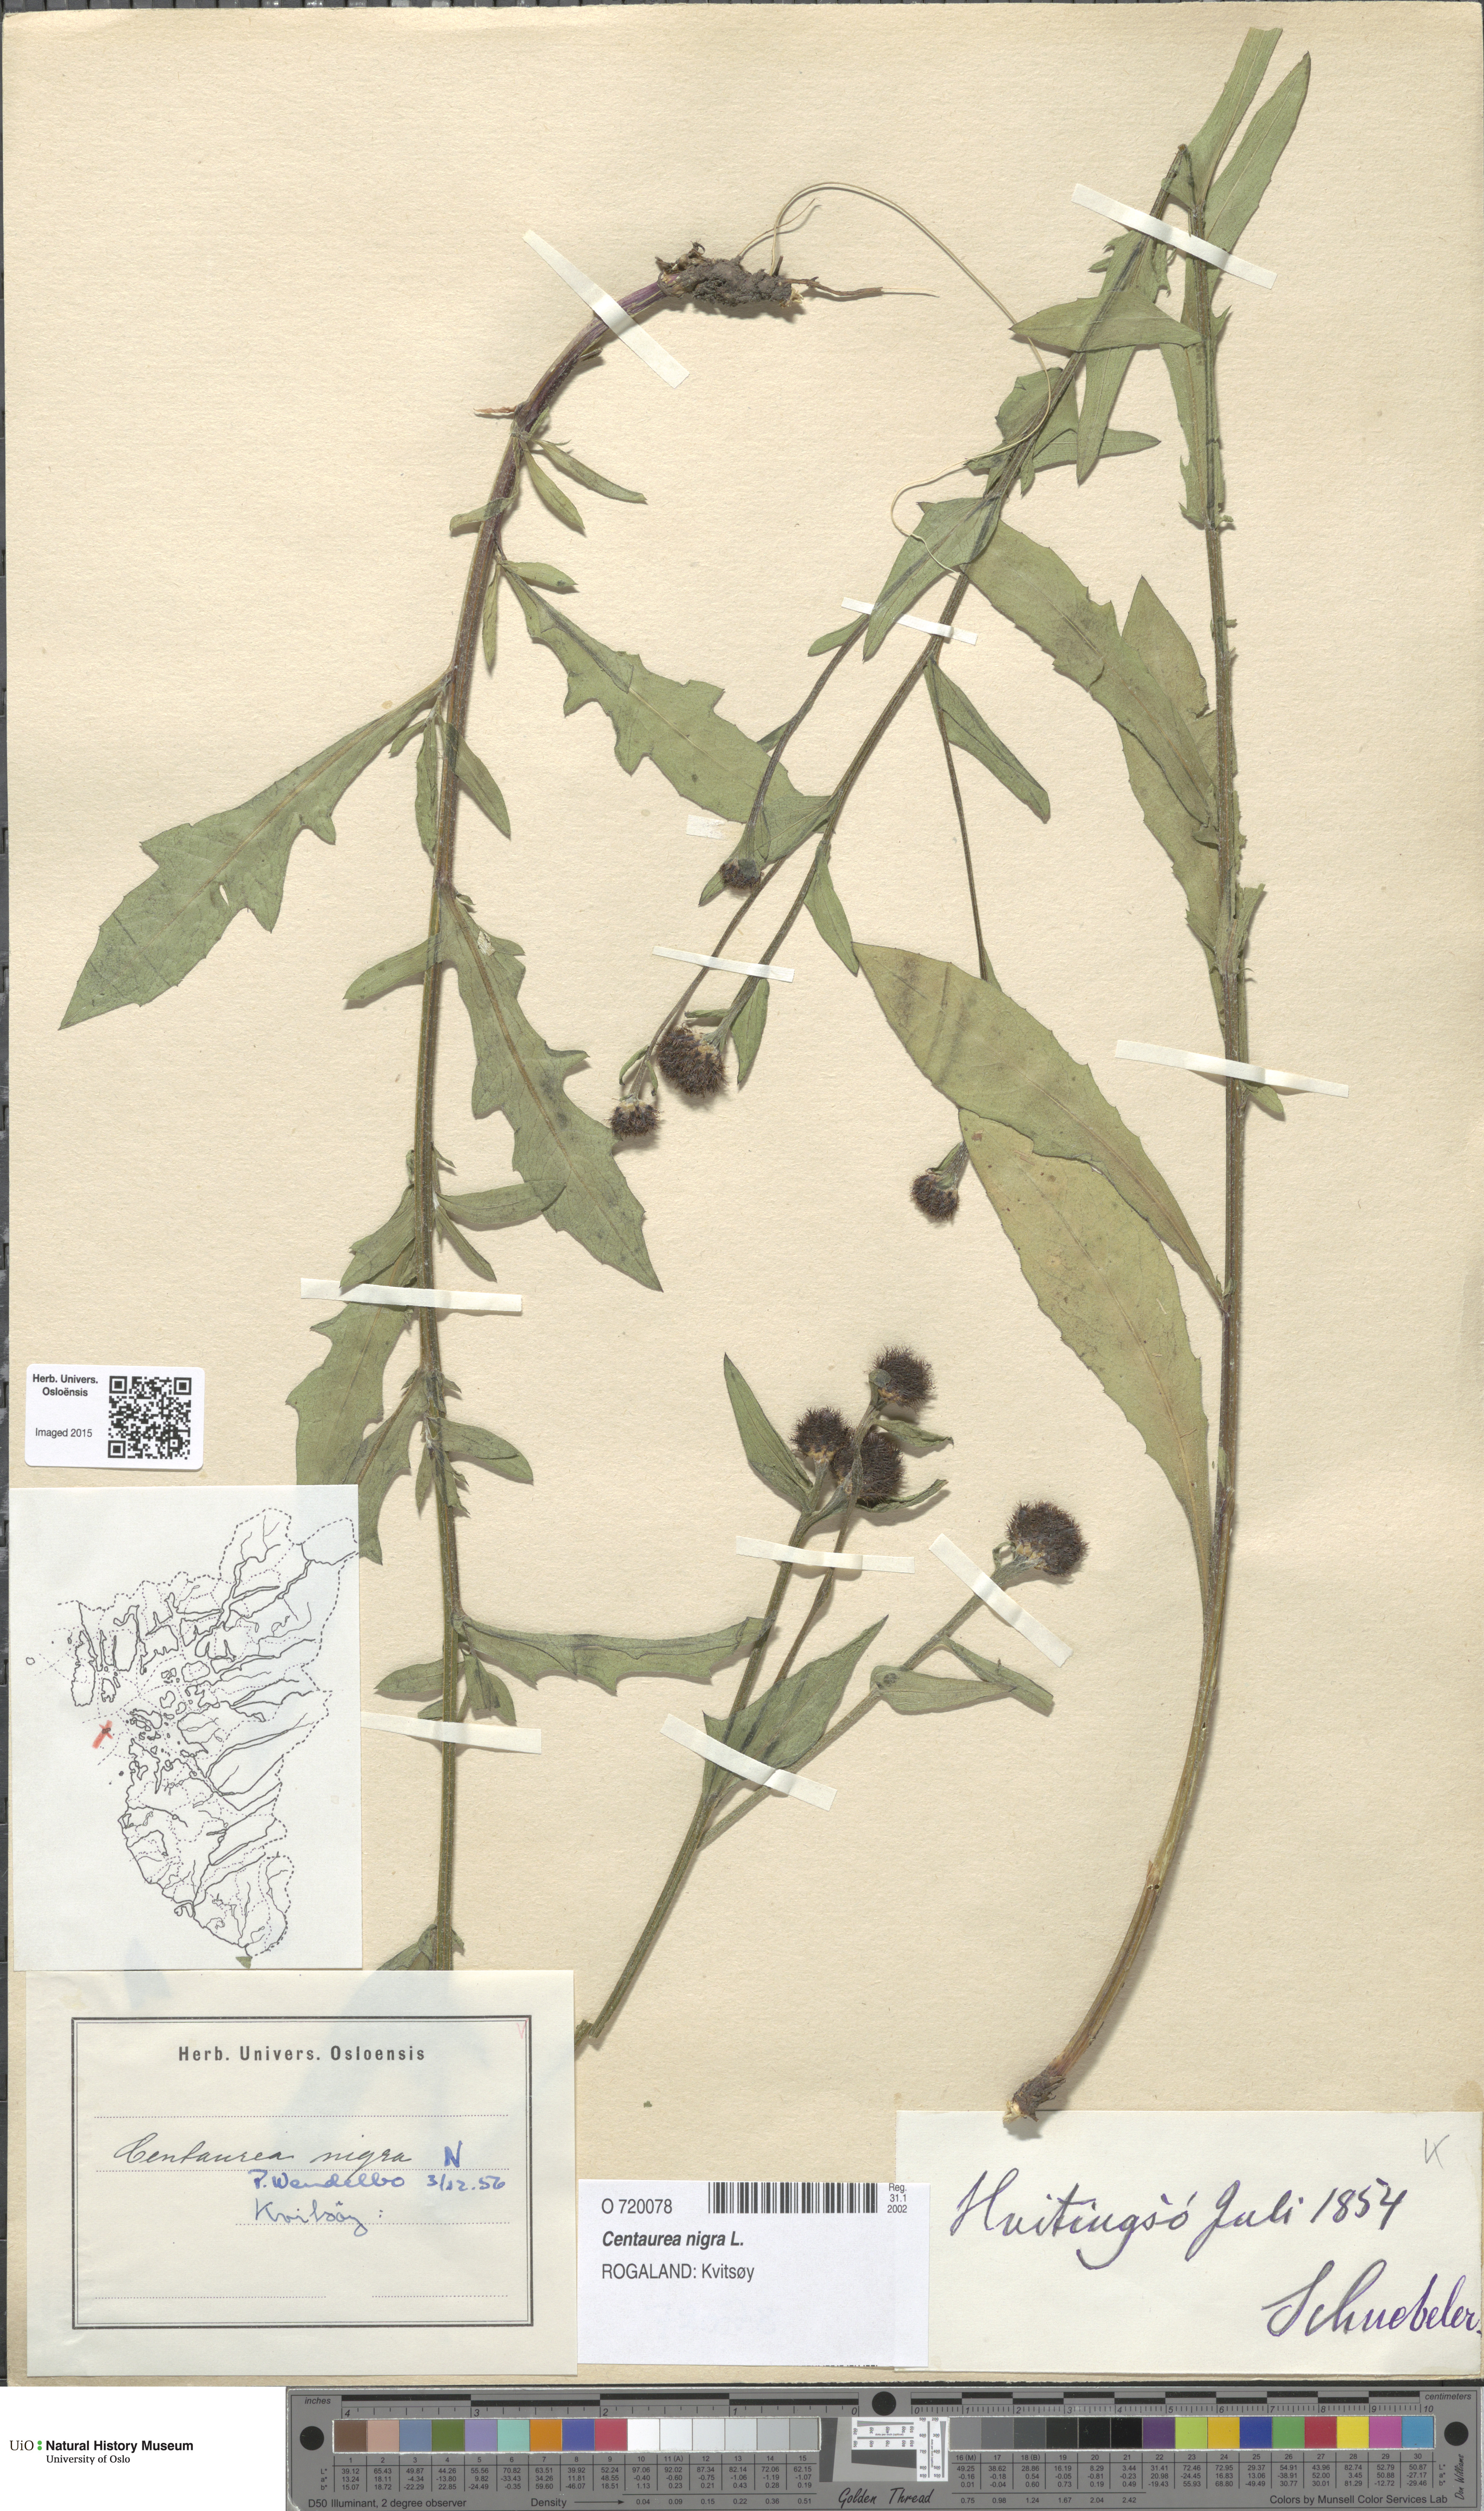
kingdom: Plantae
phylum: Tracheophyta
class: Magnoliopsida
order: Asterales
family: Asteraceae
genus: Centaurea
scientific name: Centaurea nigra
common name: Lesser knapweed
